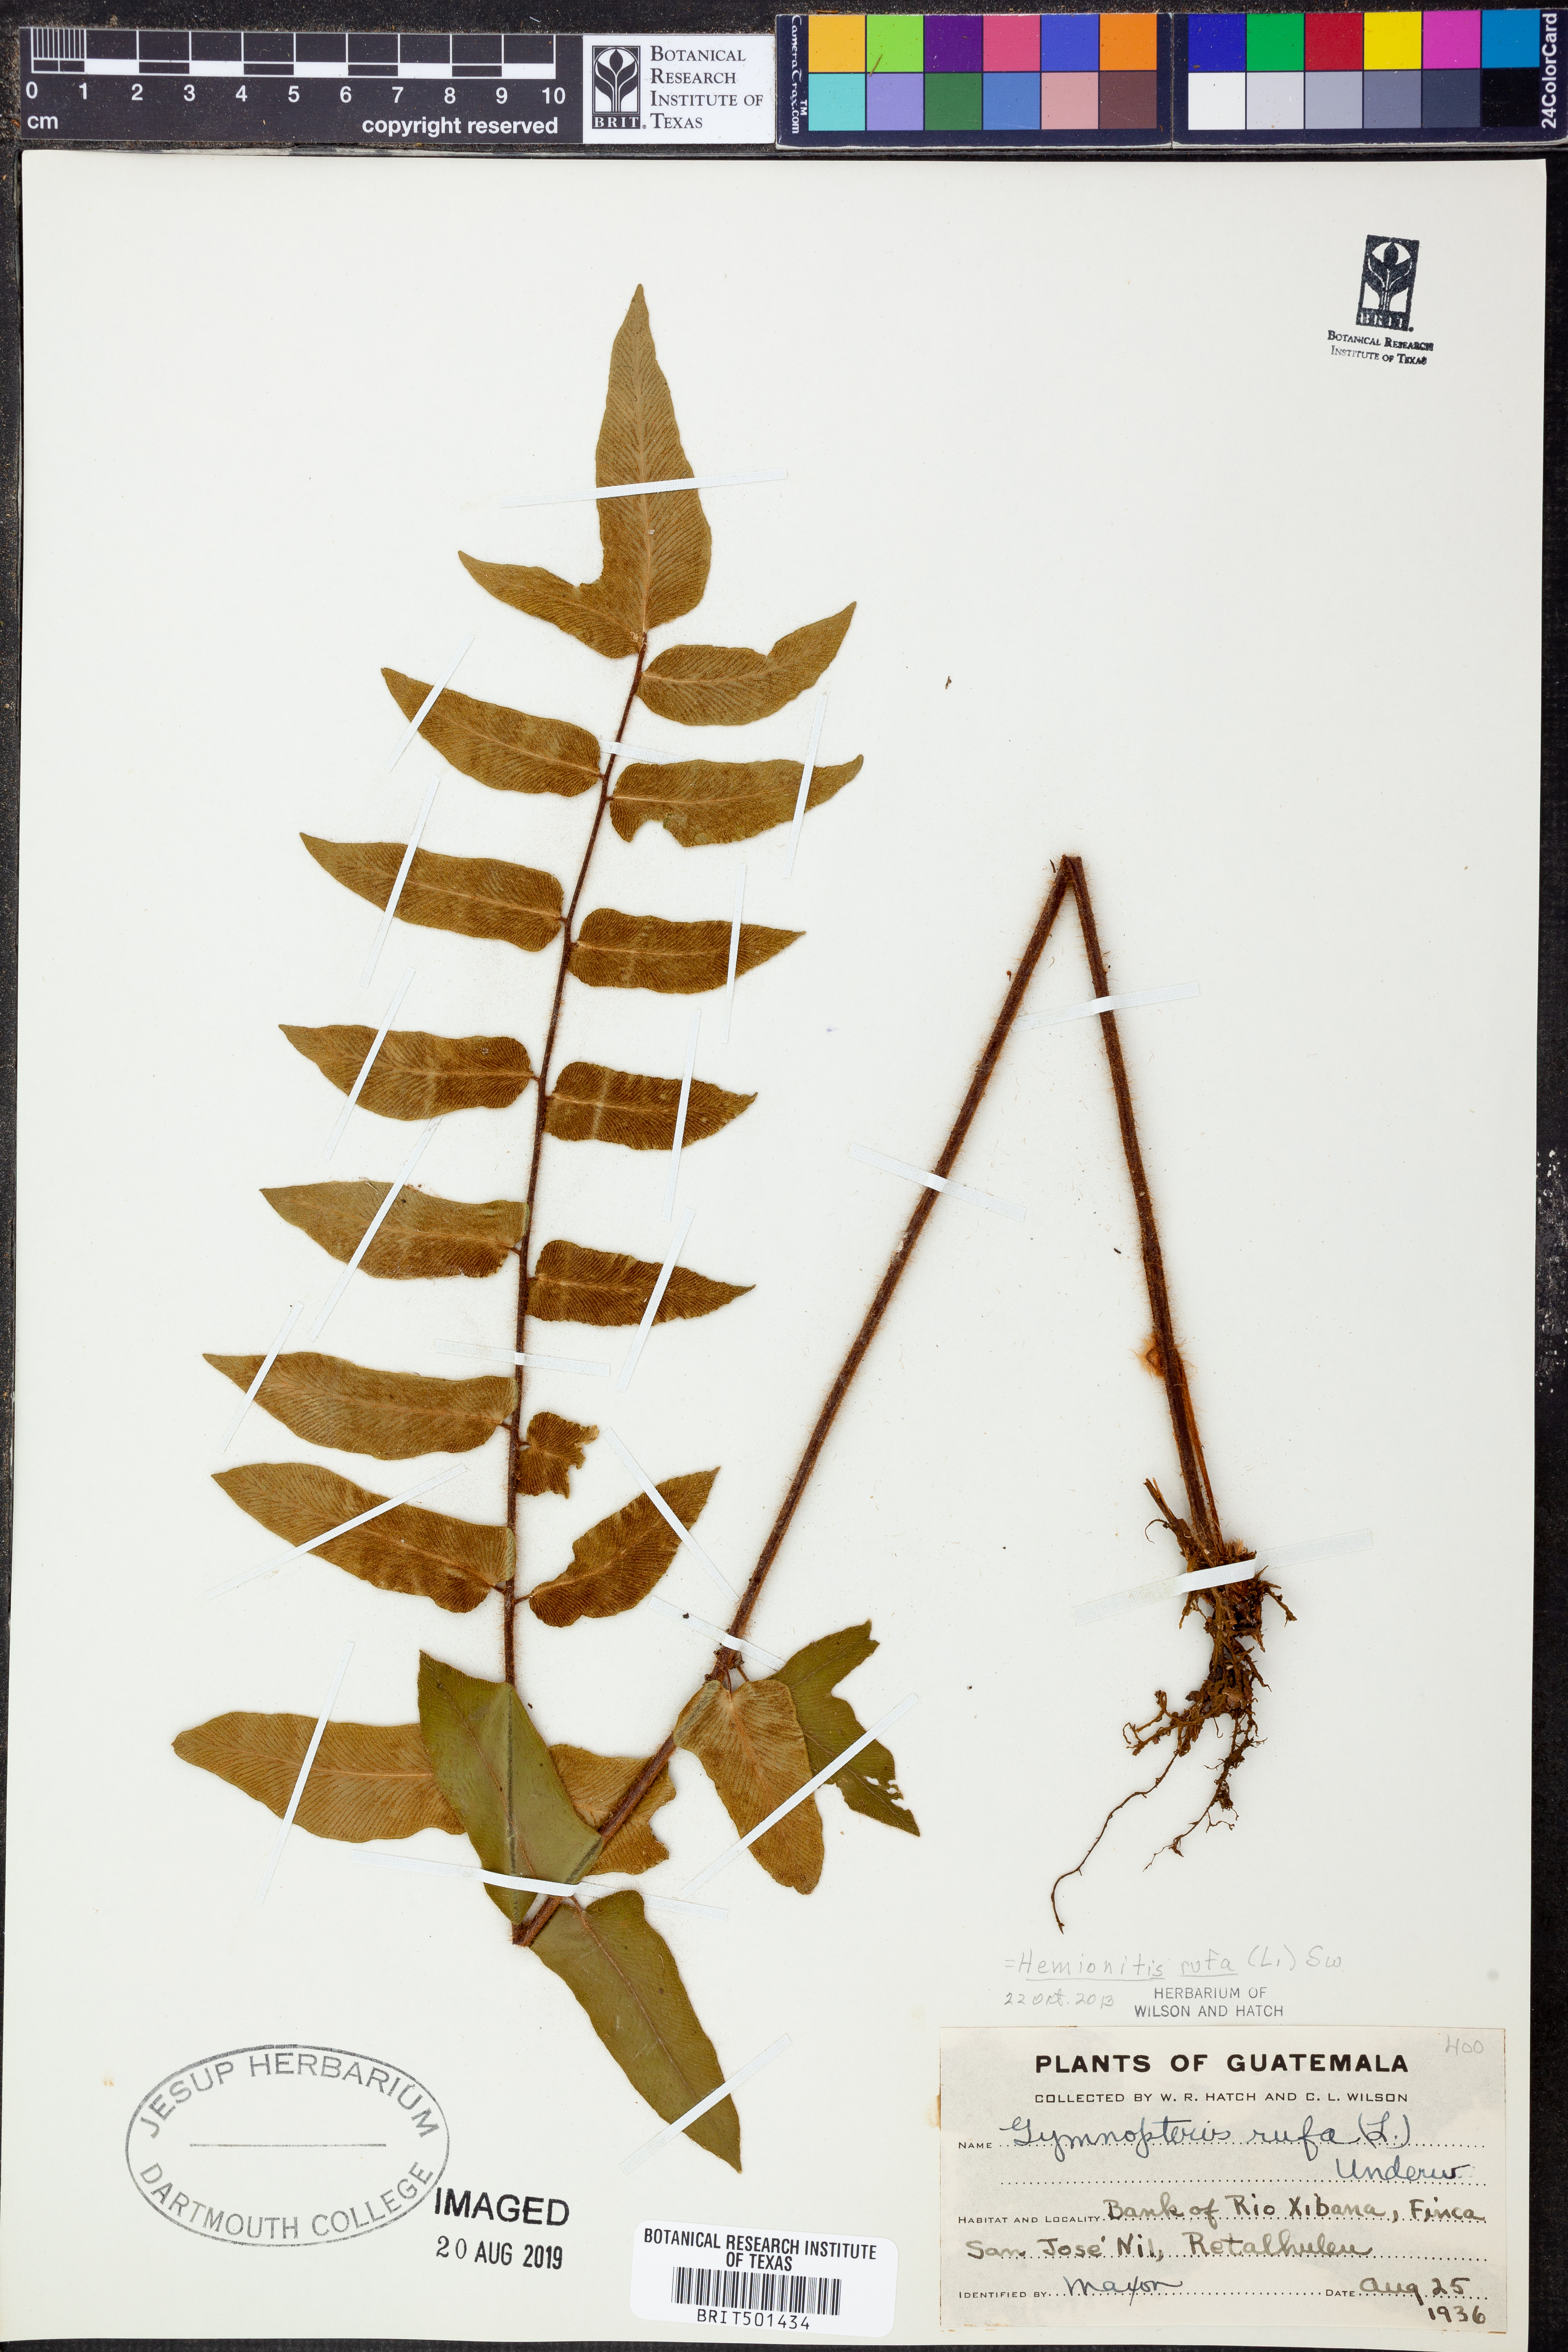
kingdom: Plantae
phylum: Tracheophyta
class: Polypodiopsida
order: Polypodiales
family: Pteridaceae
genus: Hemionitis
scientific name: Hemionitis rufa
